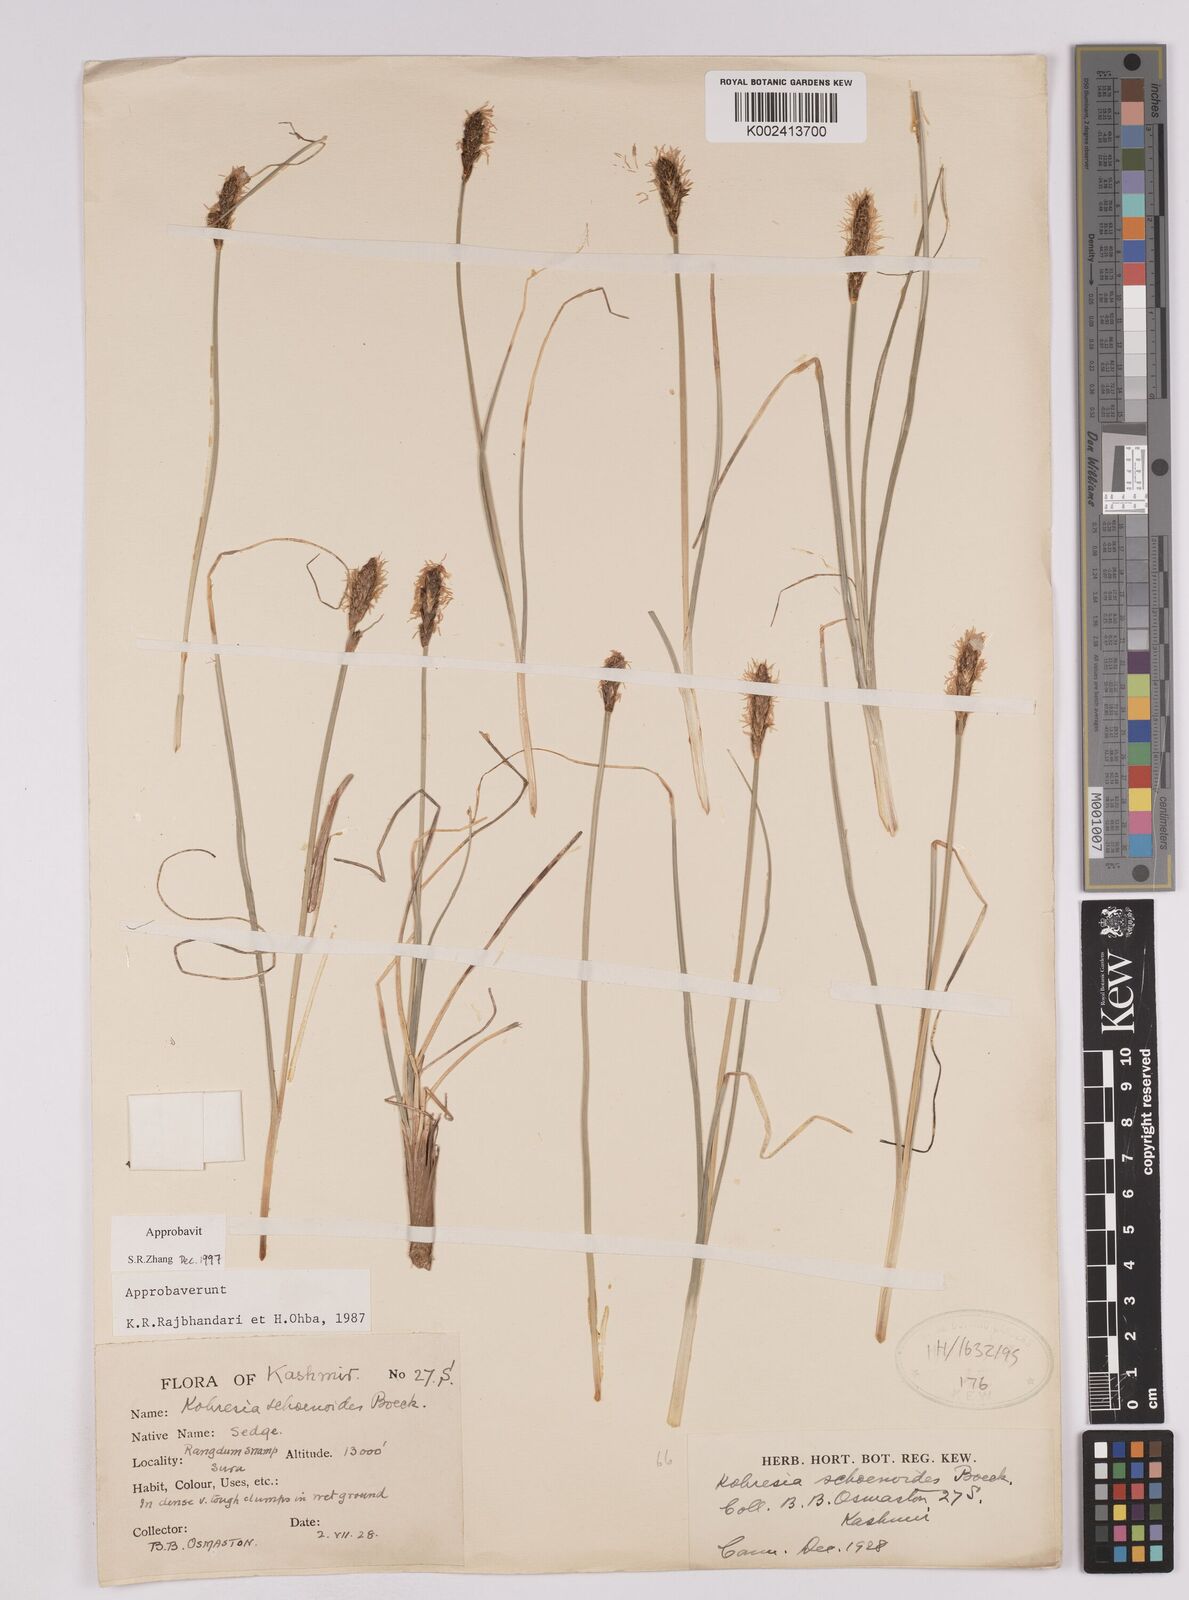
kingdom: Plantae
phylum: Tracheophyta
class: Liliopsida
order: Poales
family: Cyperaceae
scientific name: Cyperaceae
